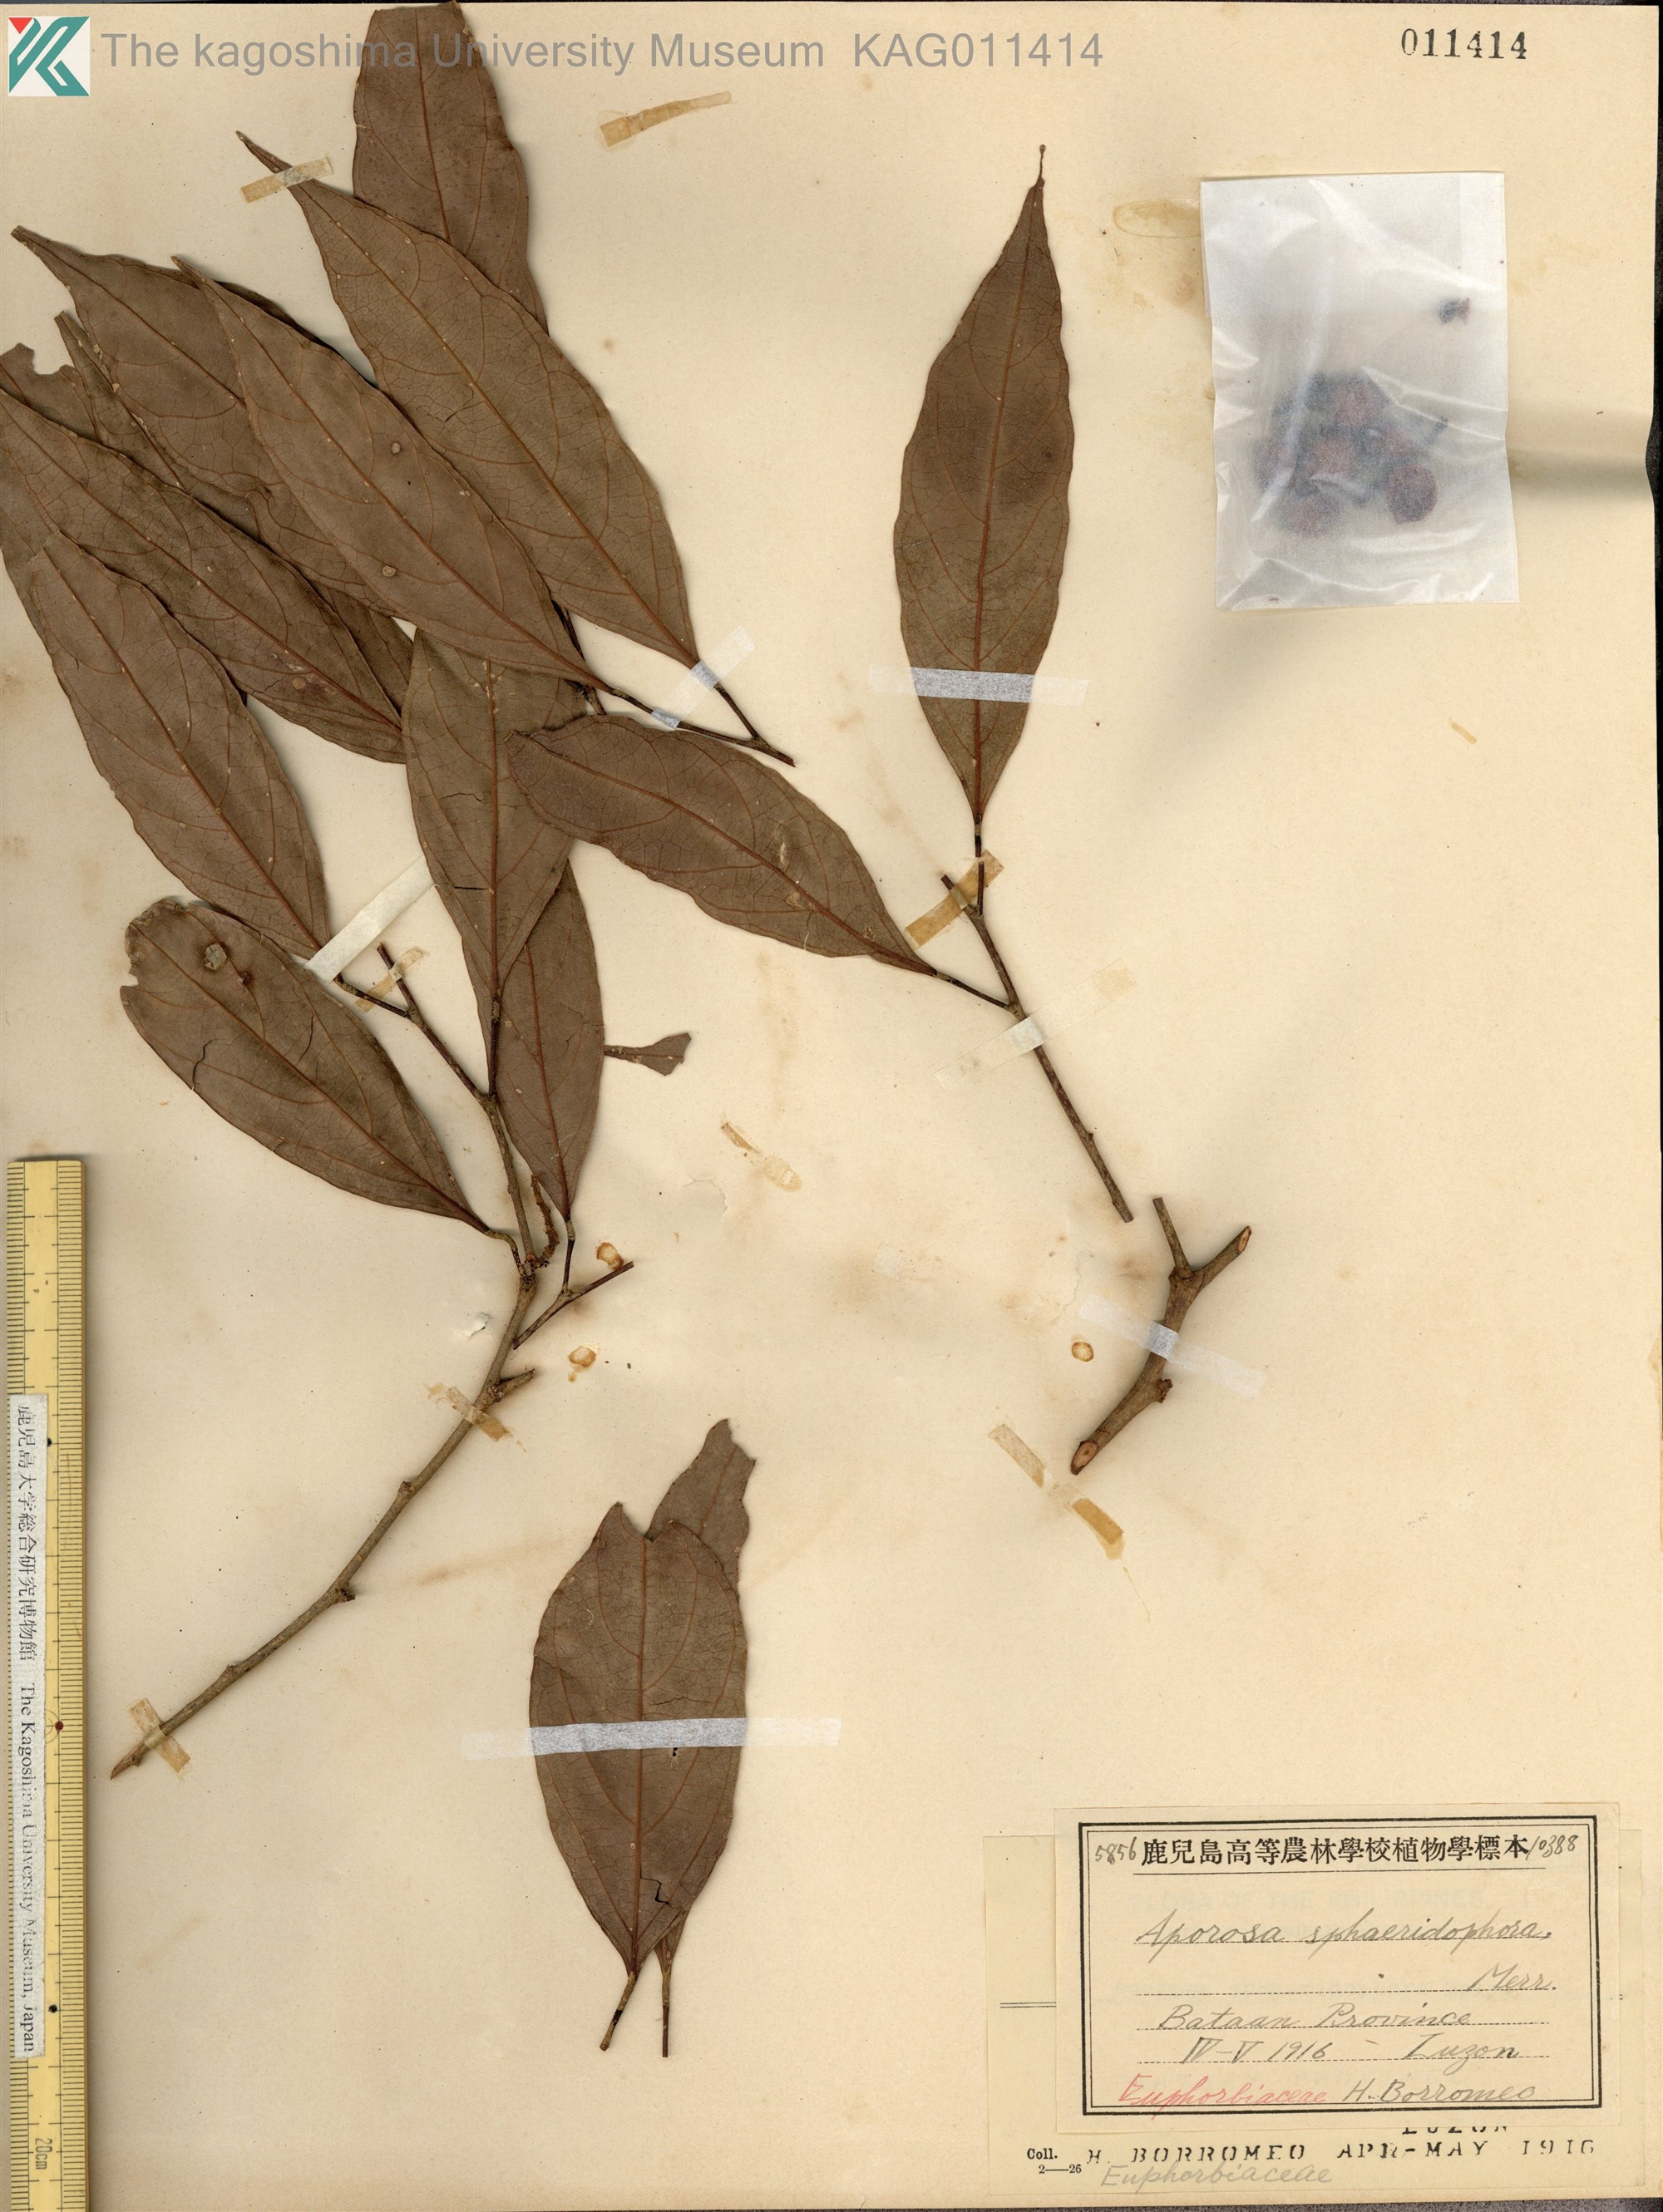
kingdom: Plantae
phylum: Tracheophyta
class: Magnoliopsida
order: Malpighiales
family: Phyllanthaceae
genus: Aporosa
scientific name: Aporosa
